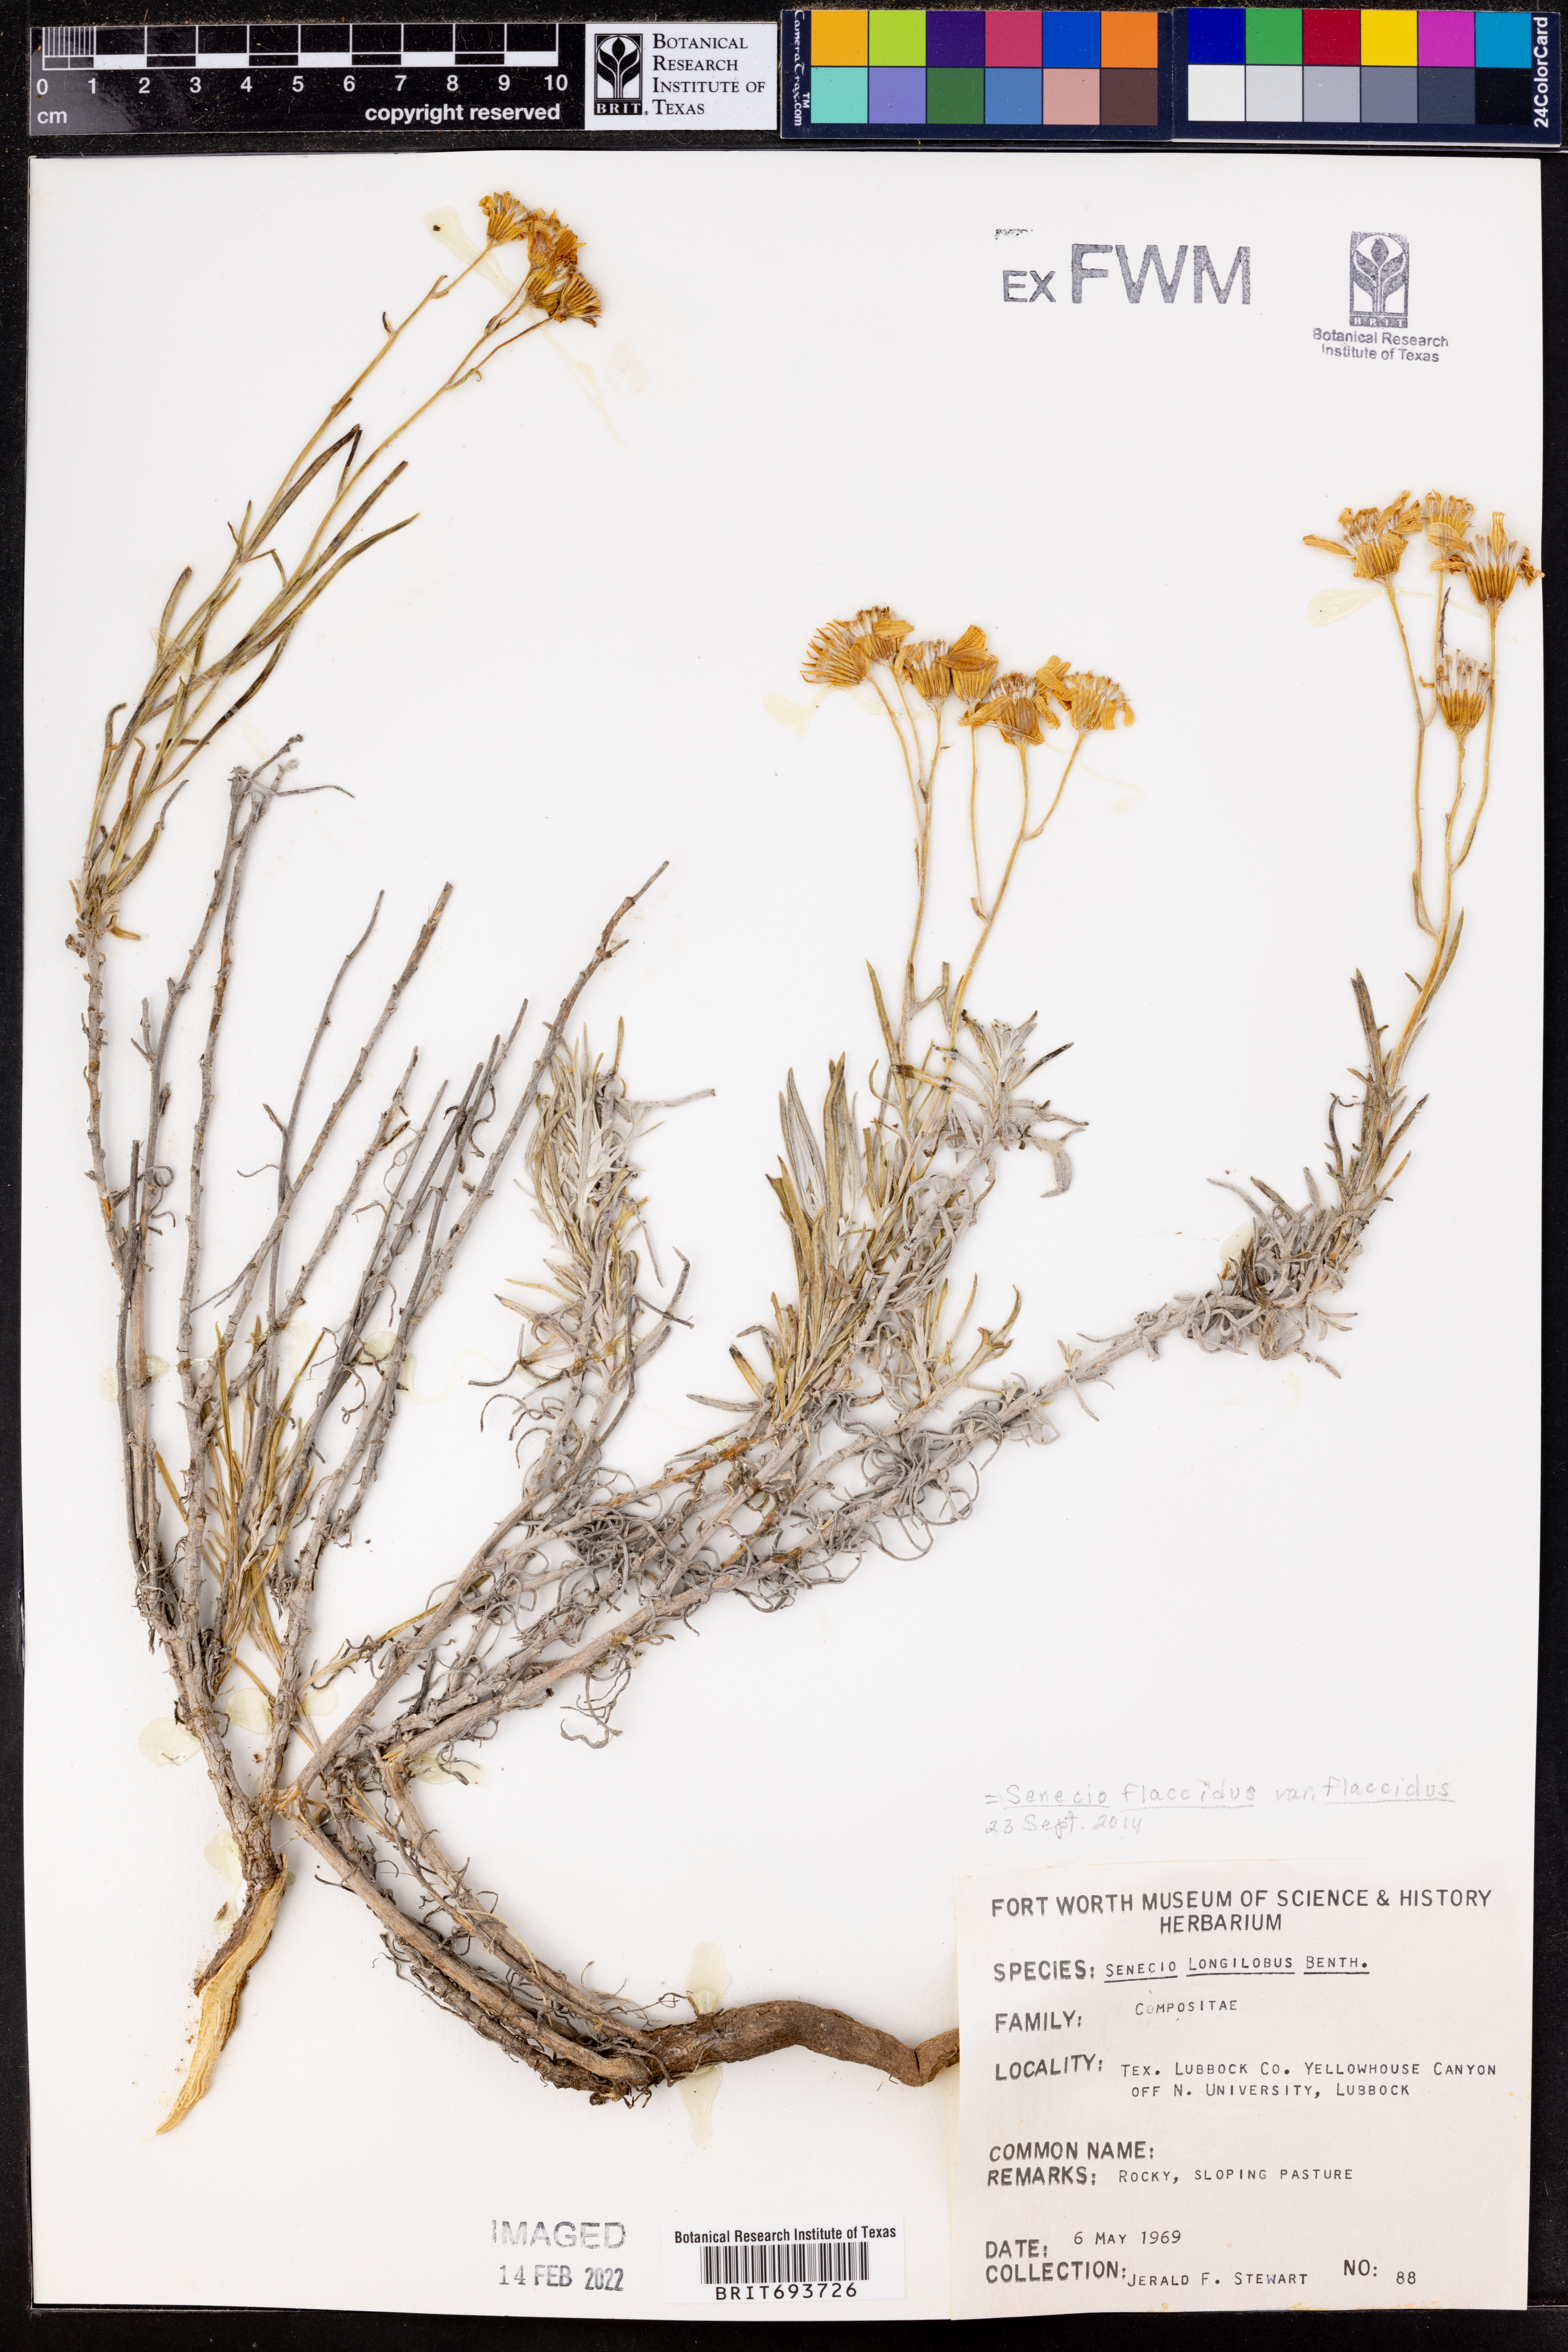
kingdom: Plantae
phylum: Tracheophyta
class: Magnoliopsida
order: Asterales
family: Asteraceae
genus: Senecio
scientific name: Senecio flaccidus
